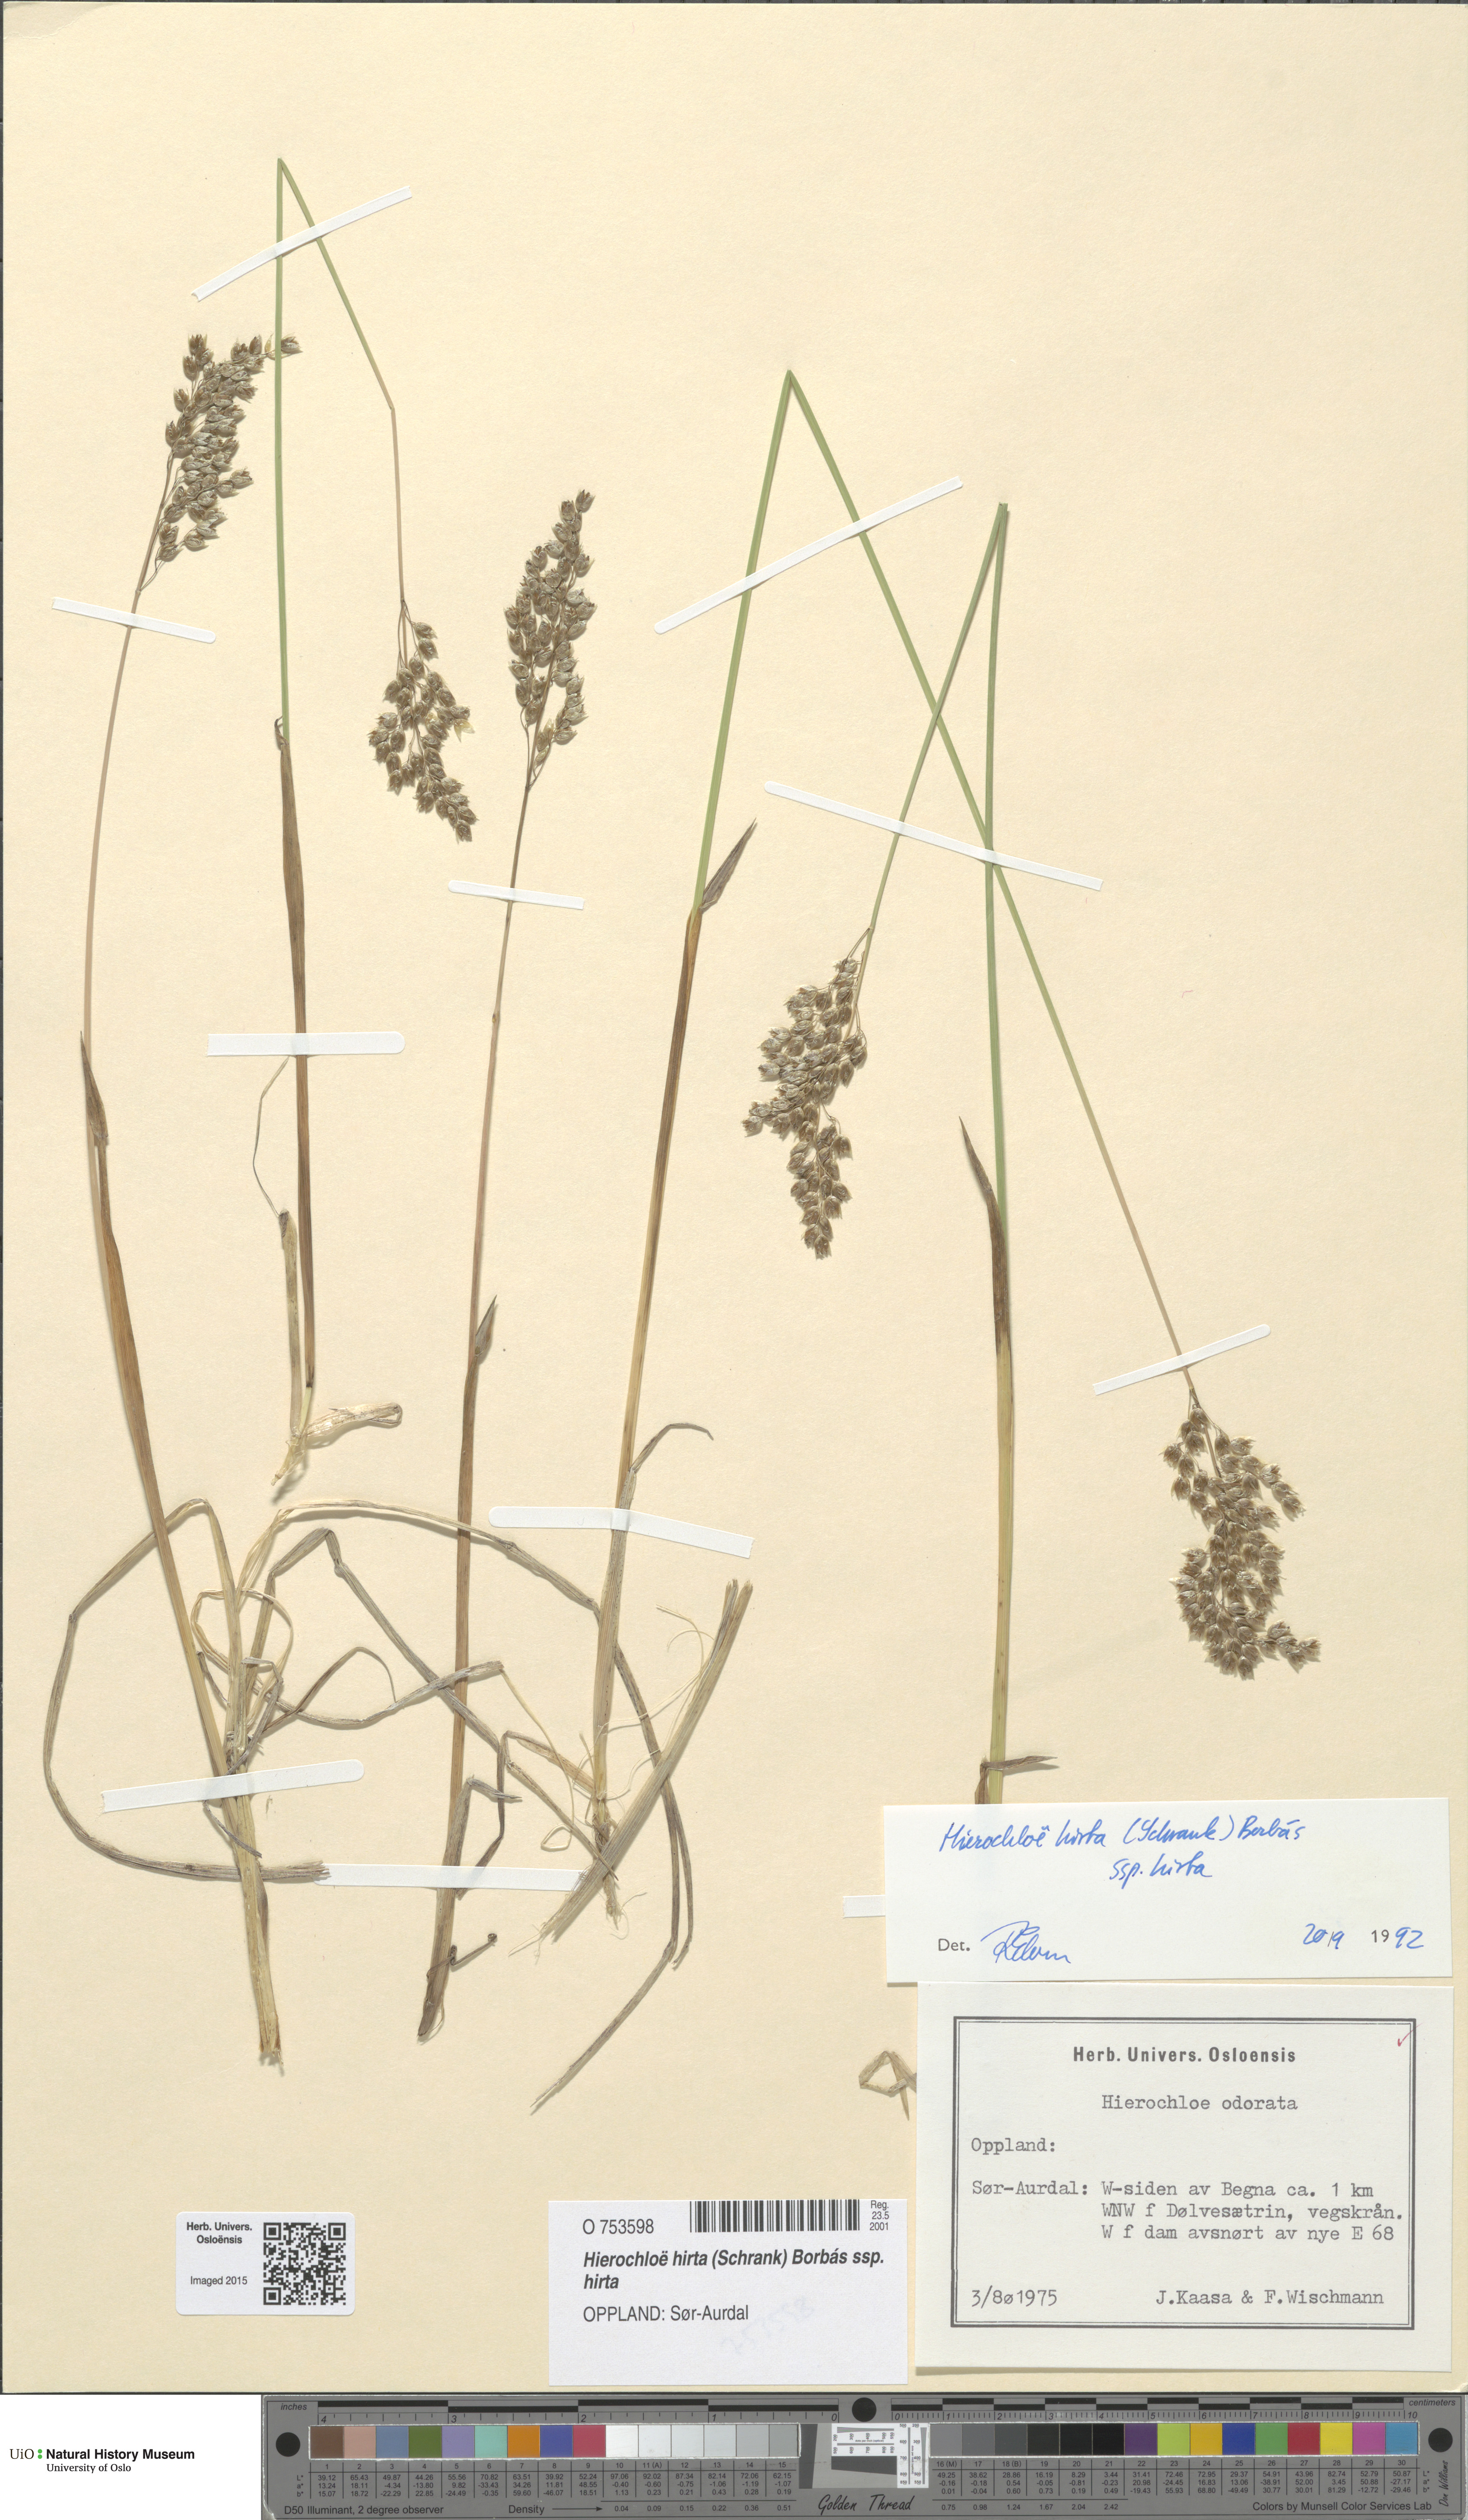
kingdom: Plantae
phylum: Tracheophyta
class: Liliopsida
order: Poales
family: Poaceae
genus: Anthoxanthum
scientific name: Anthoxanthum nitens
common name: Holy grass
